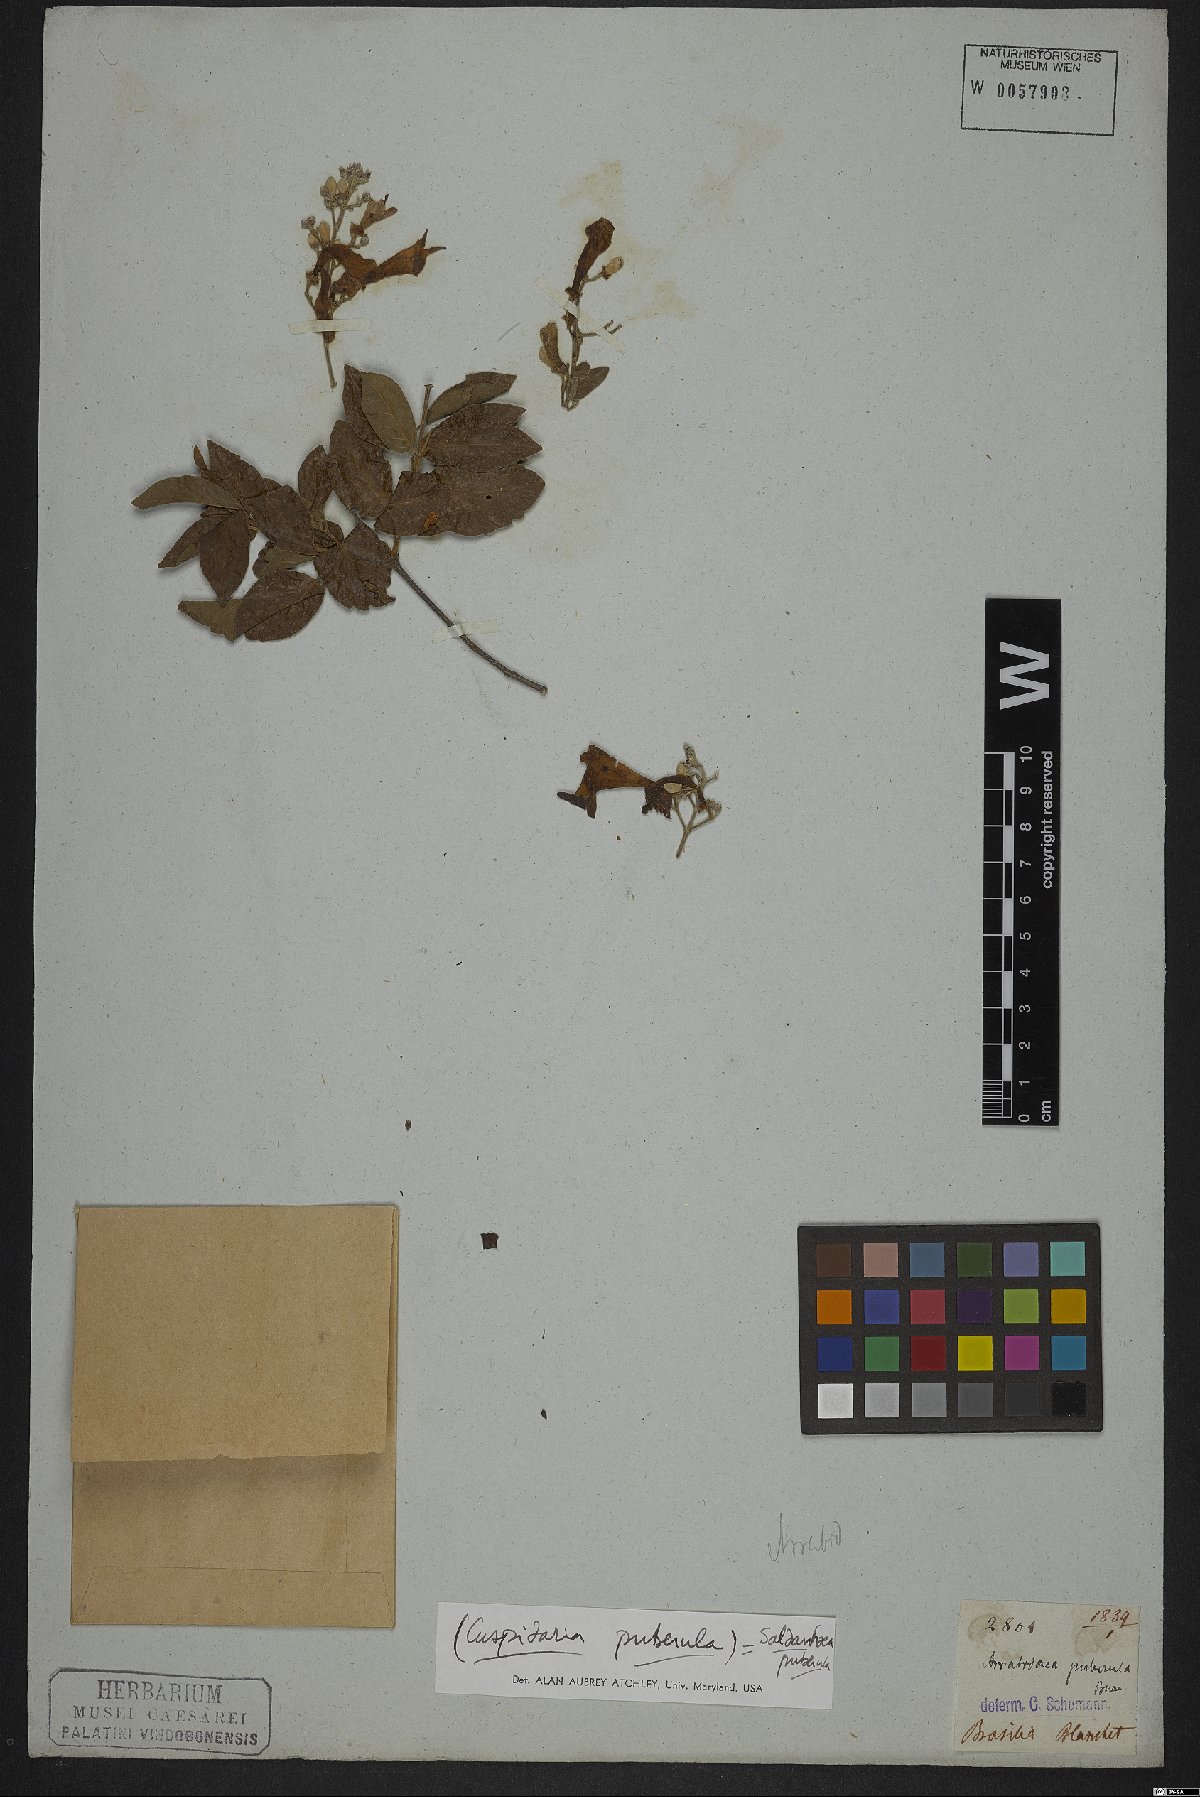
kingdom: Plantae
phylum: Tracheophyta
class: Magnoliopsida
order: Lamiales
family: Bignoniaceae
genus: Cuspidaria
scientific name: Cuspidaria simplicifolia
